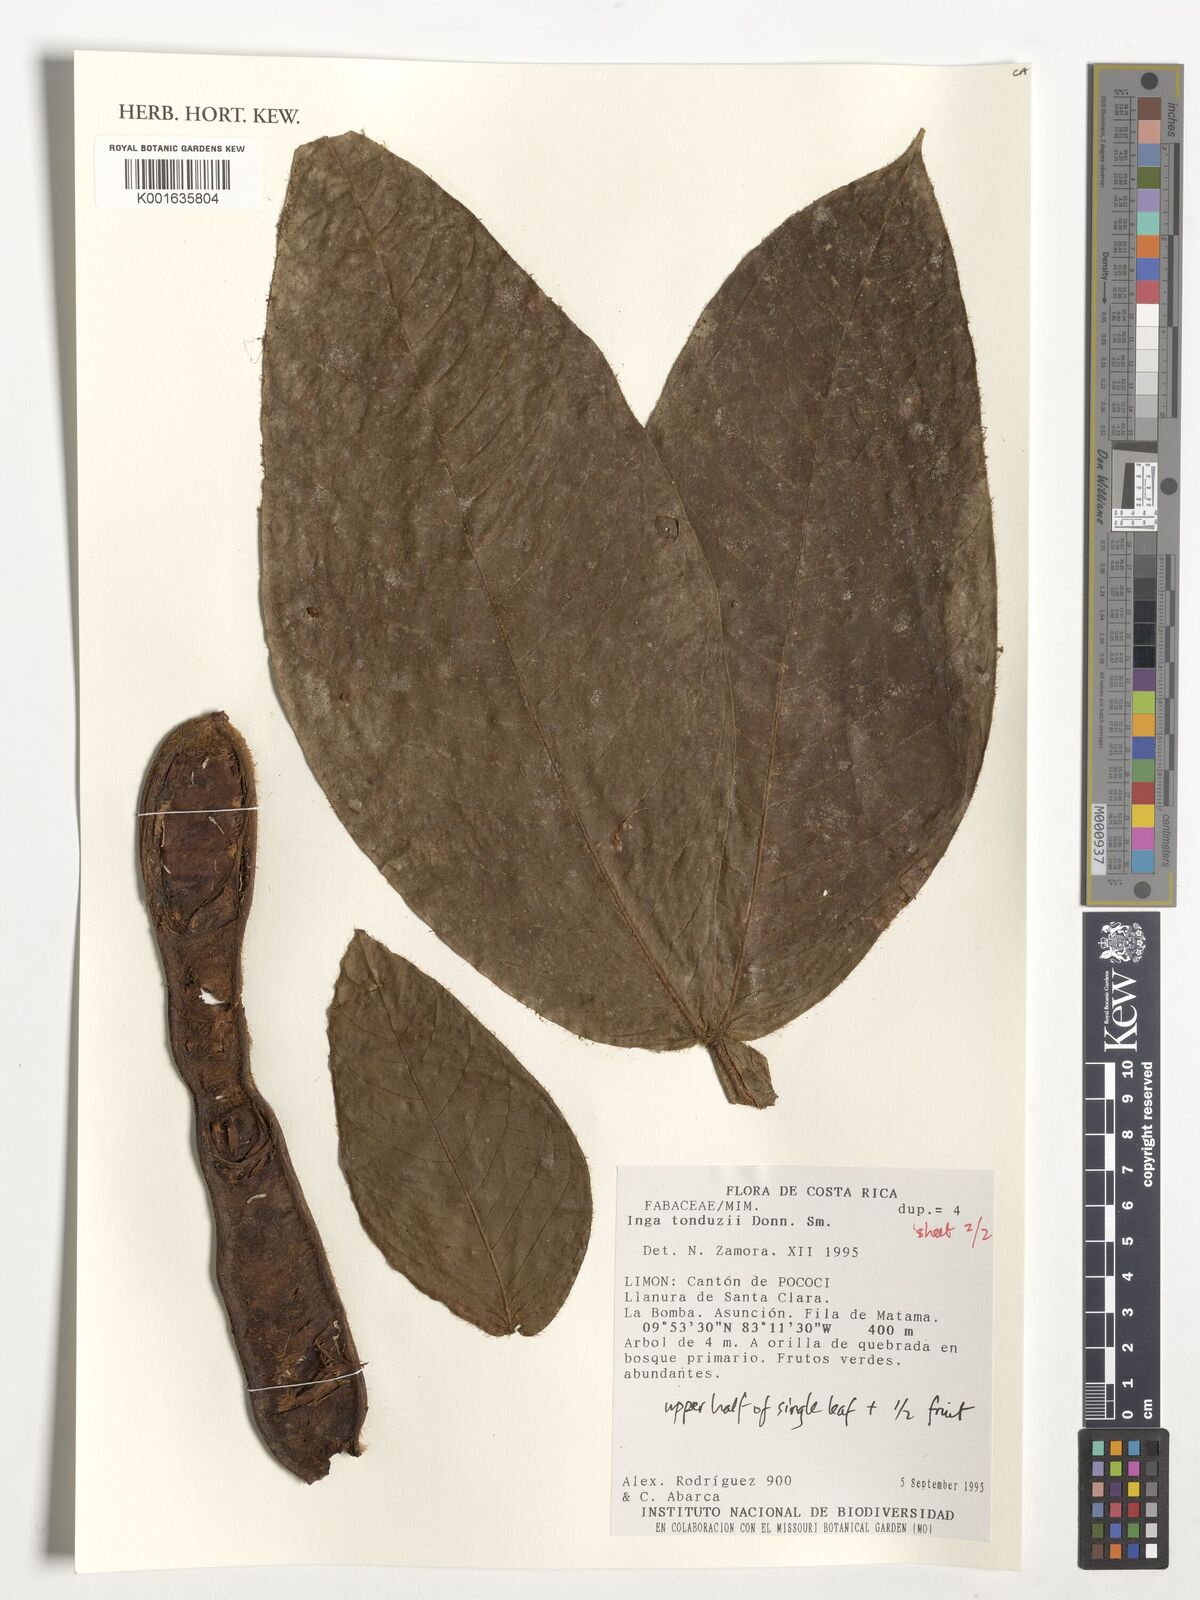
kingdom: Plantae
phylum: Tracheophyta
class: Magnoliopsida
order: Fabales
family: Fabaceae
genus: Inga
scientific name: Inga tonduzii
